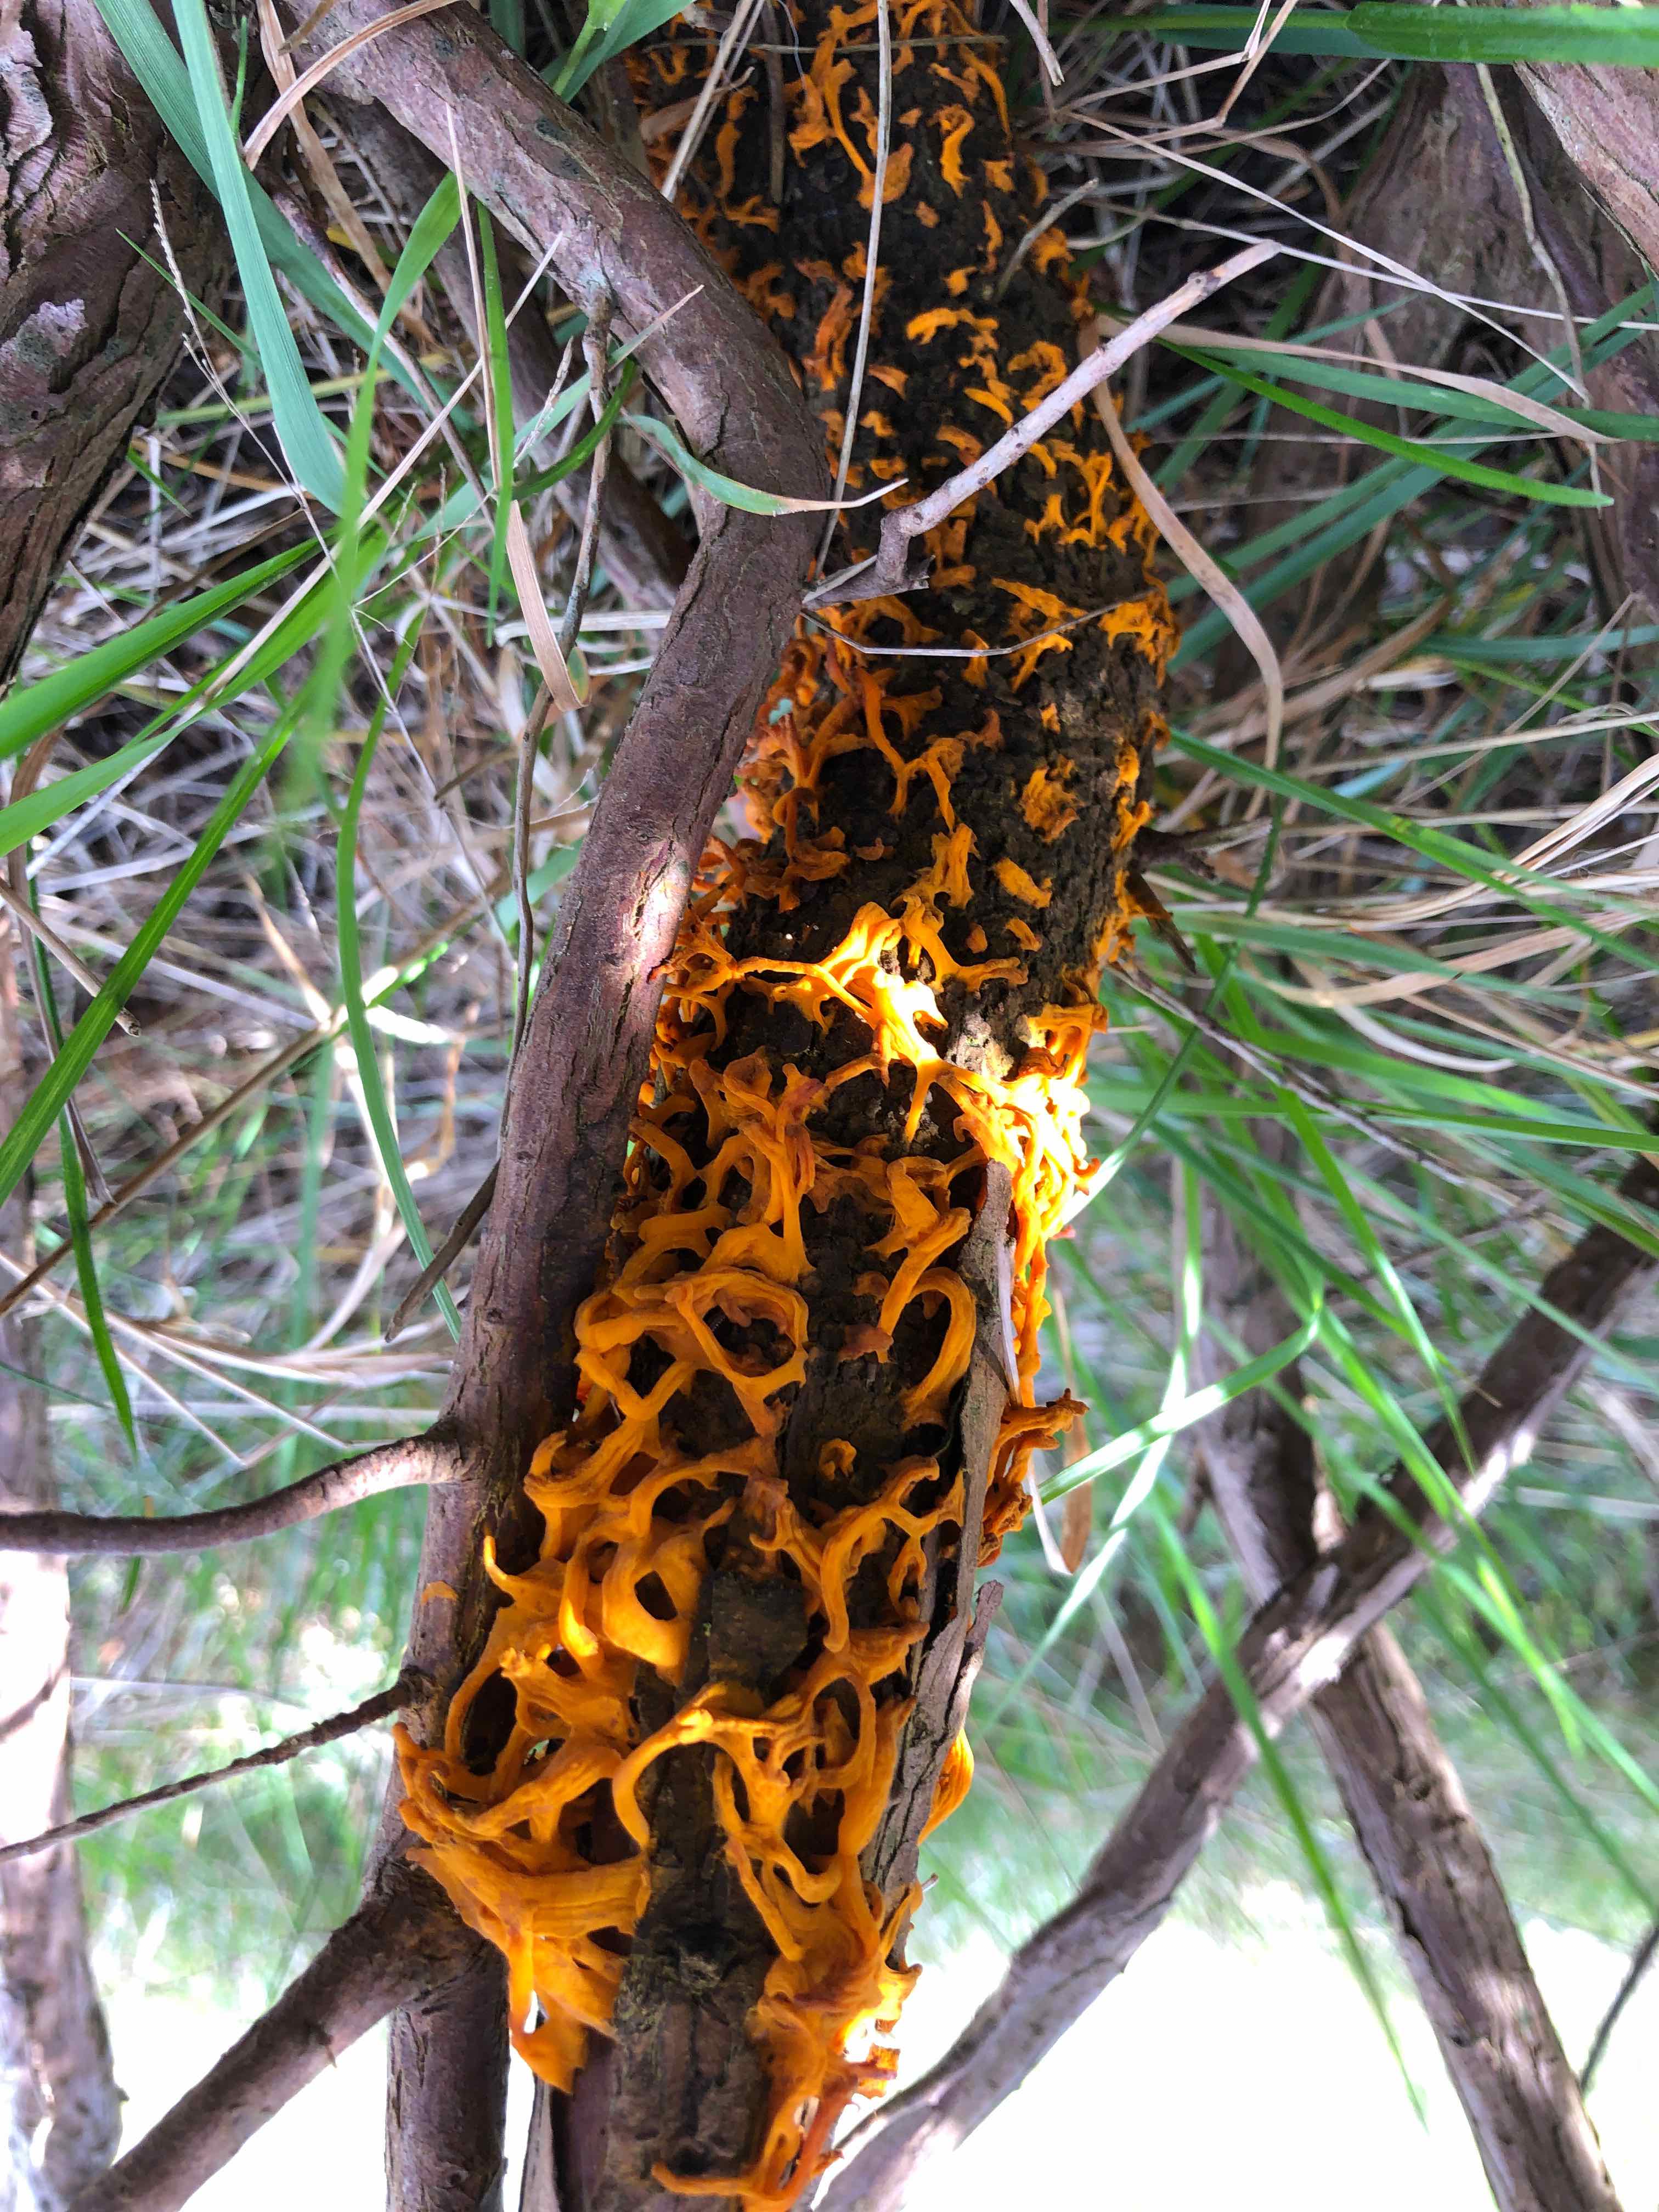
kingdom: Fungi
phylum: Basidiomycota
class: Pucciniomycetes
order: Pucciniales
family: Gymnosporangiaceae
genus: Gymnosporangium
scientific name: Gymnosporangium clavariiforme
